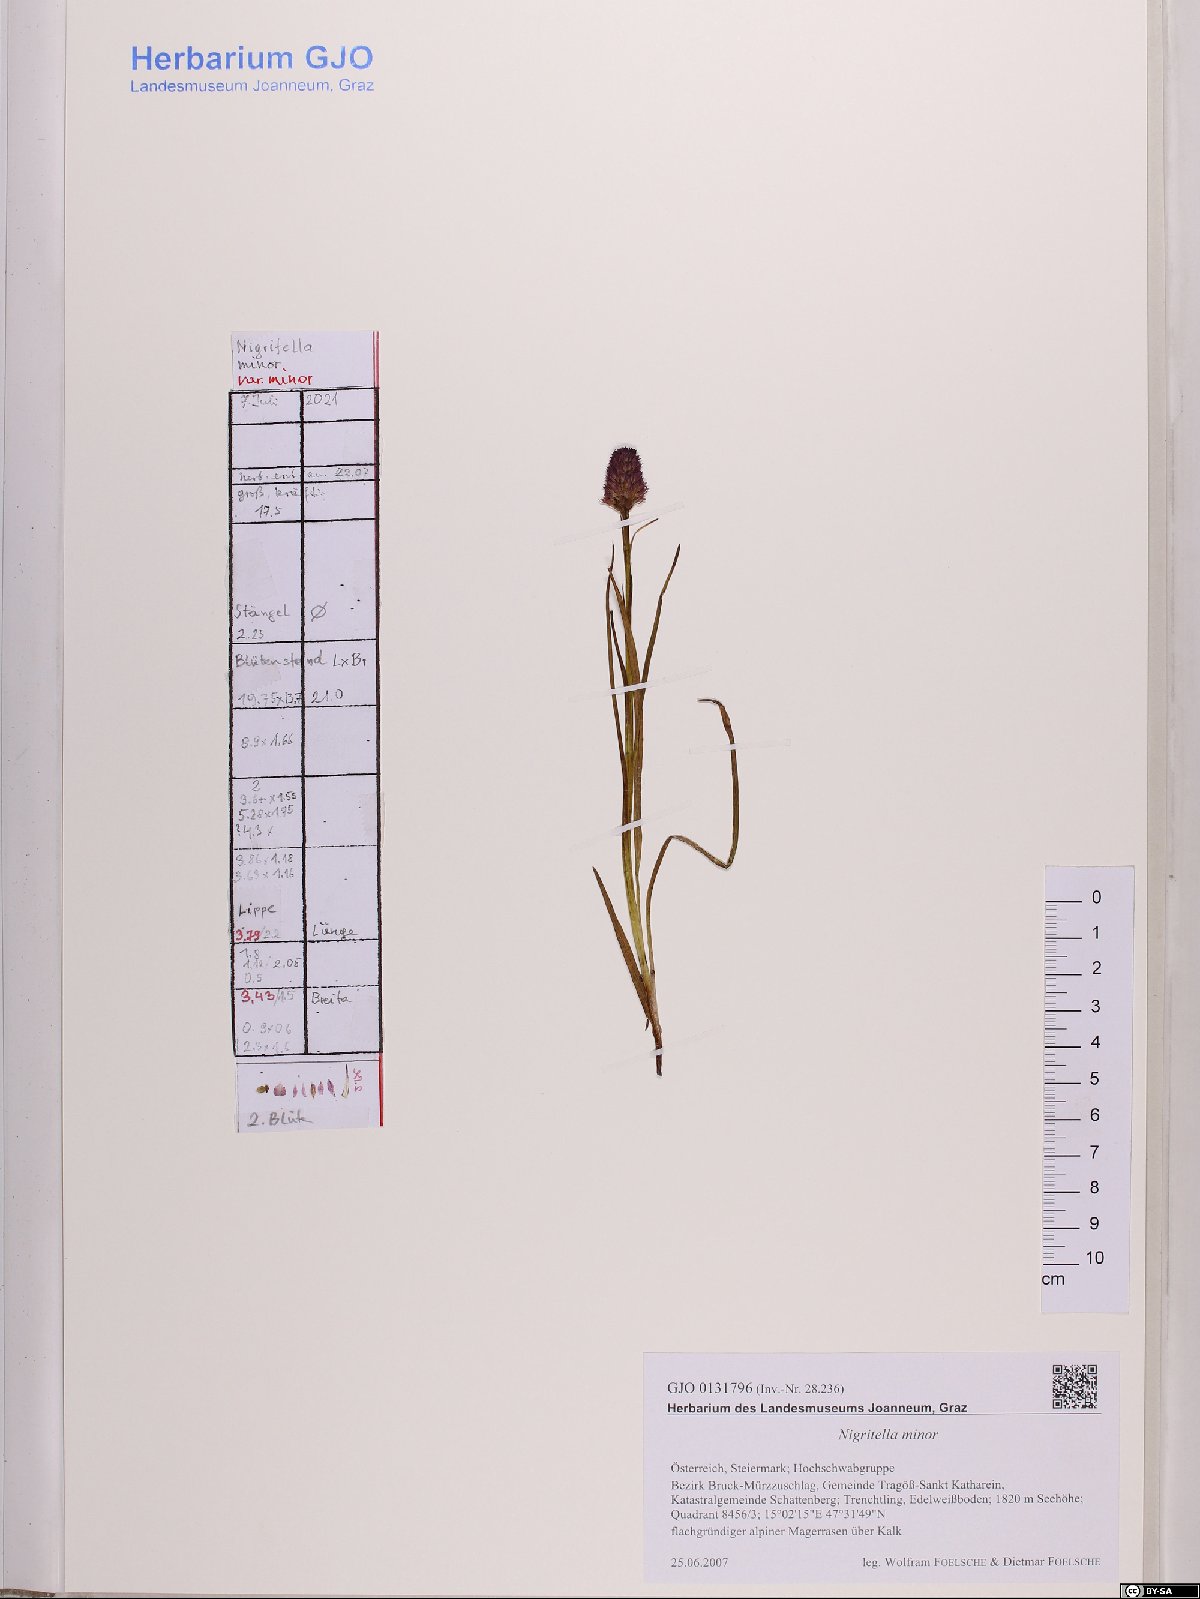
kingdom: Plantae
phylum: Tracheophyta
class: Liliopsida
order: Asparagales
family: Orchidaceae
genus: Gymnadenia
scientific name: Gymnadenia miniata
